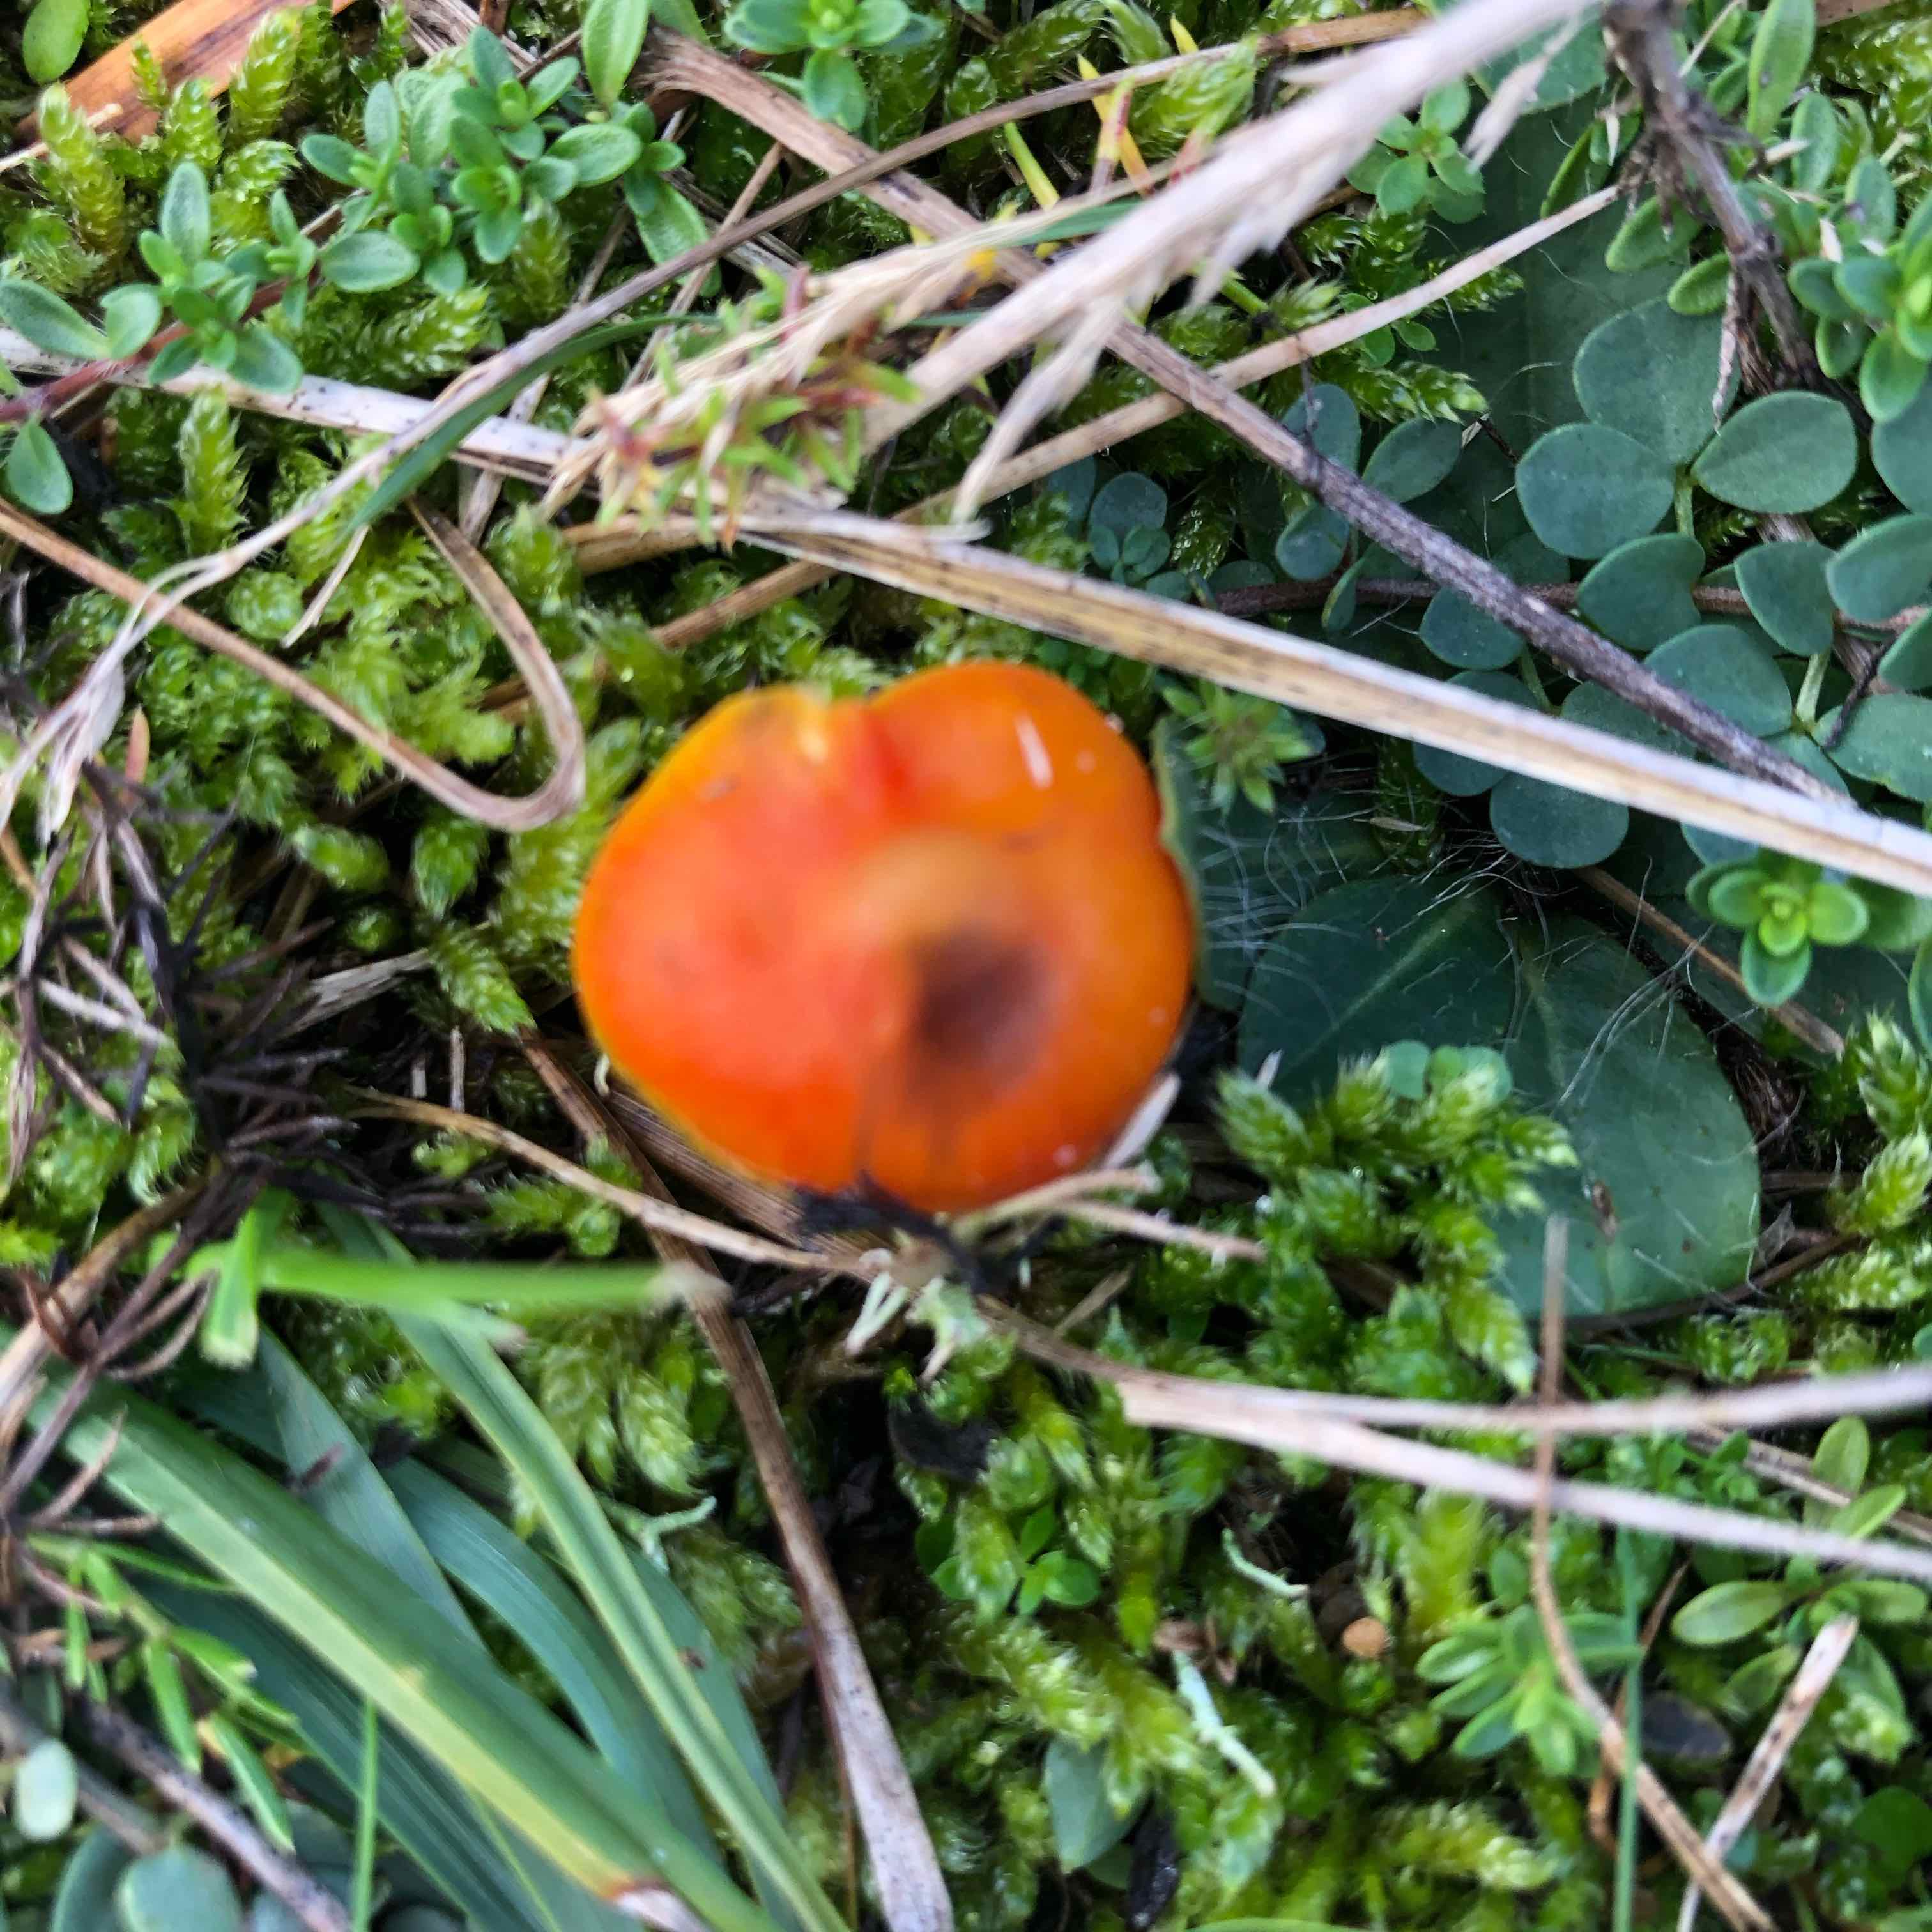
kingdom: Fungi
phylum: Basidiomycota
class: Agaricomycetes
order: Agaricales
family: Hygrophoraceae
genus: Hygrocybe
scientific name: Hygrocybe conica
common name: kegle-vokshat
